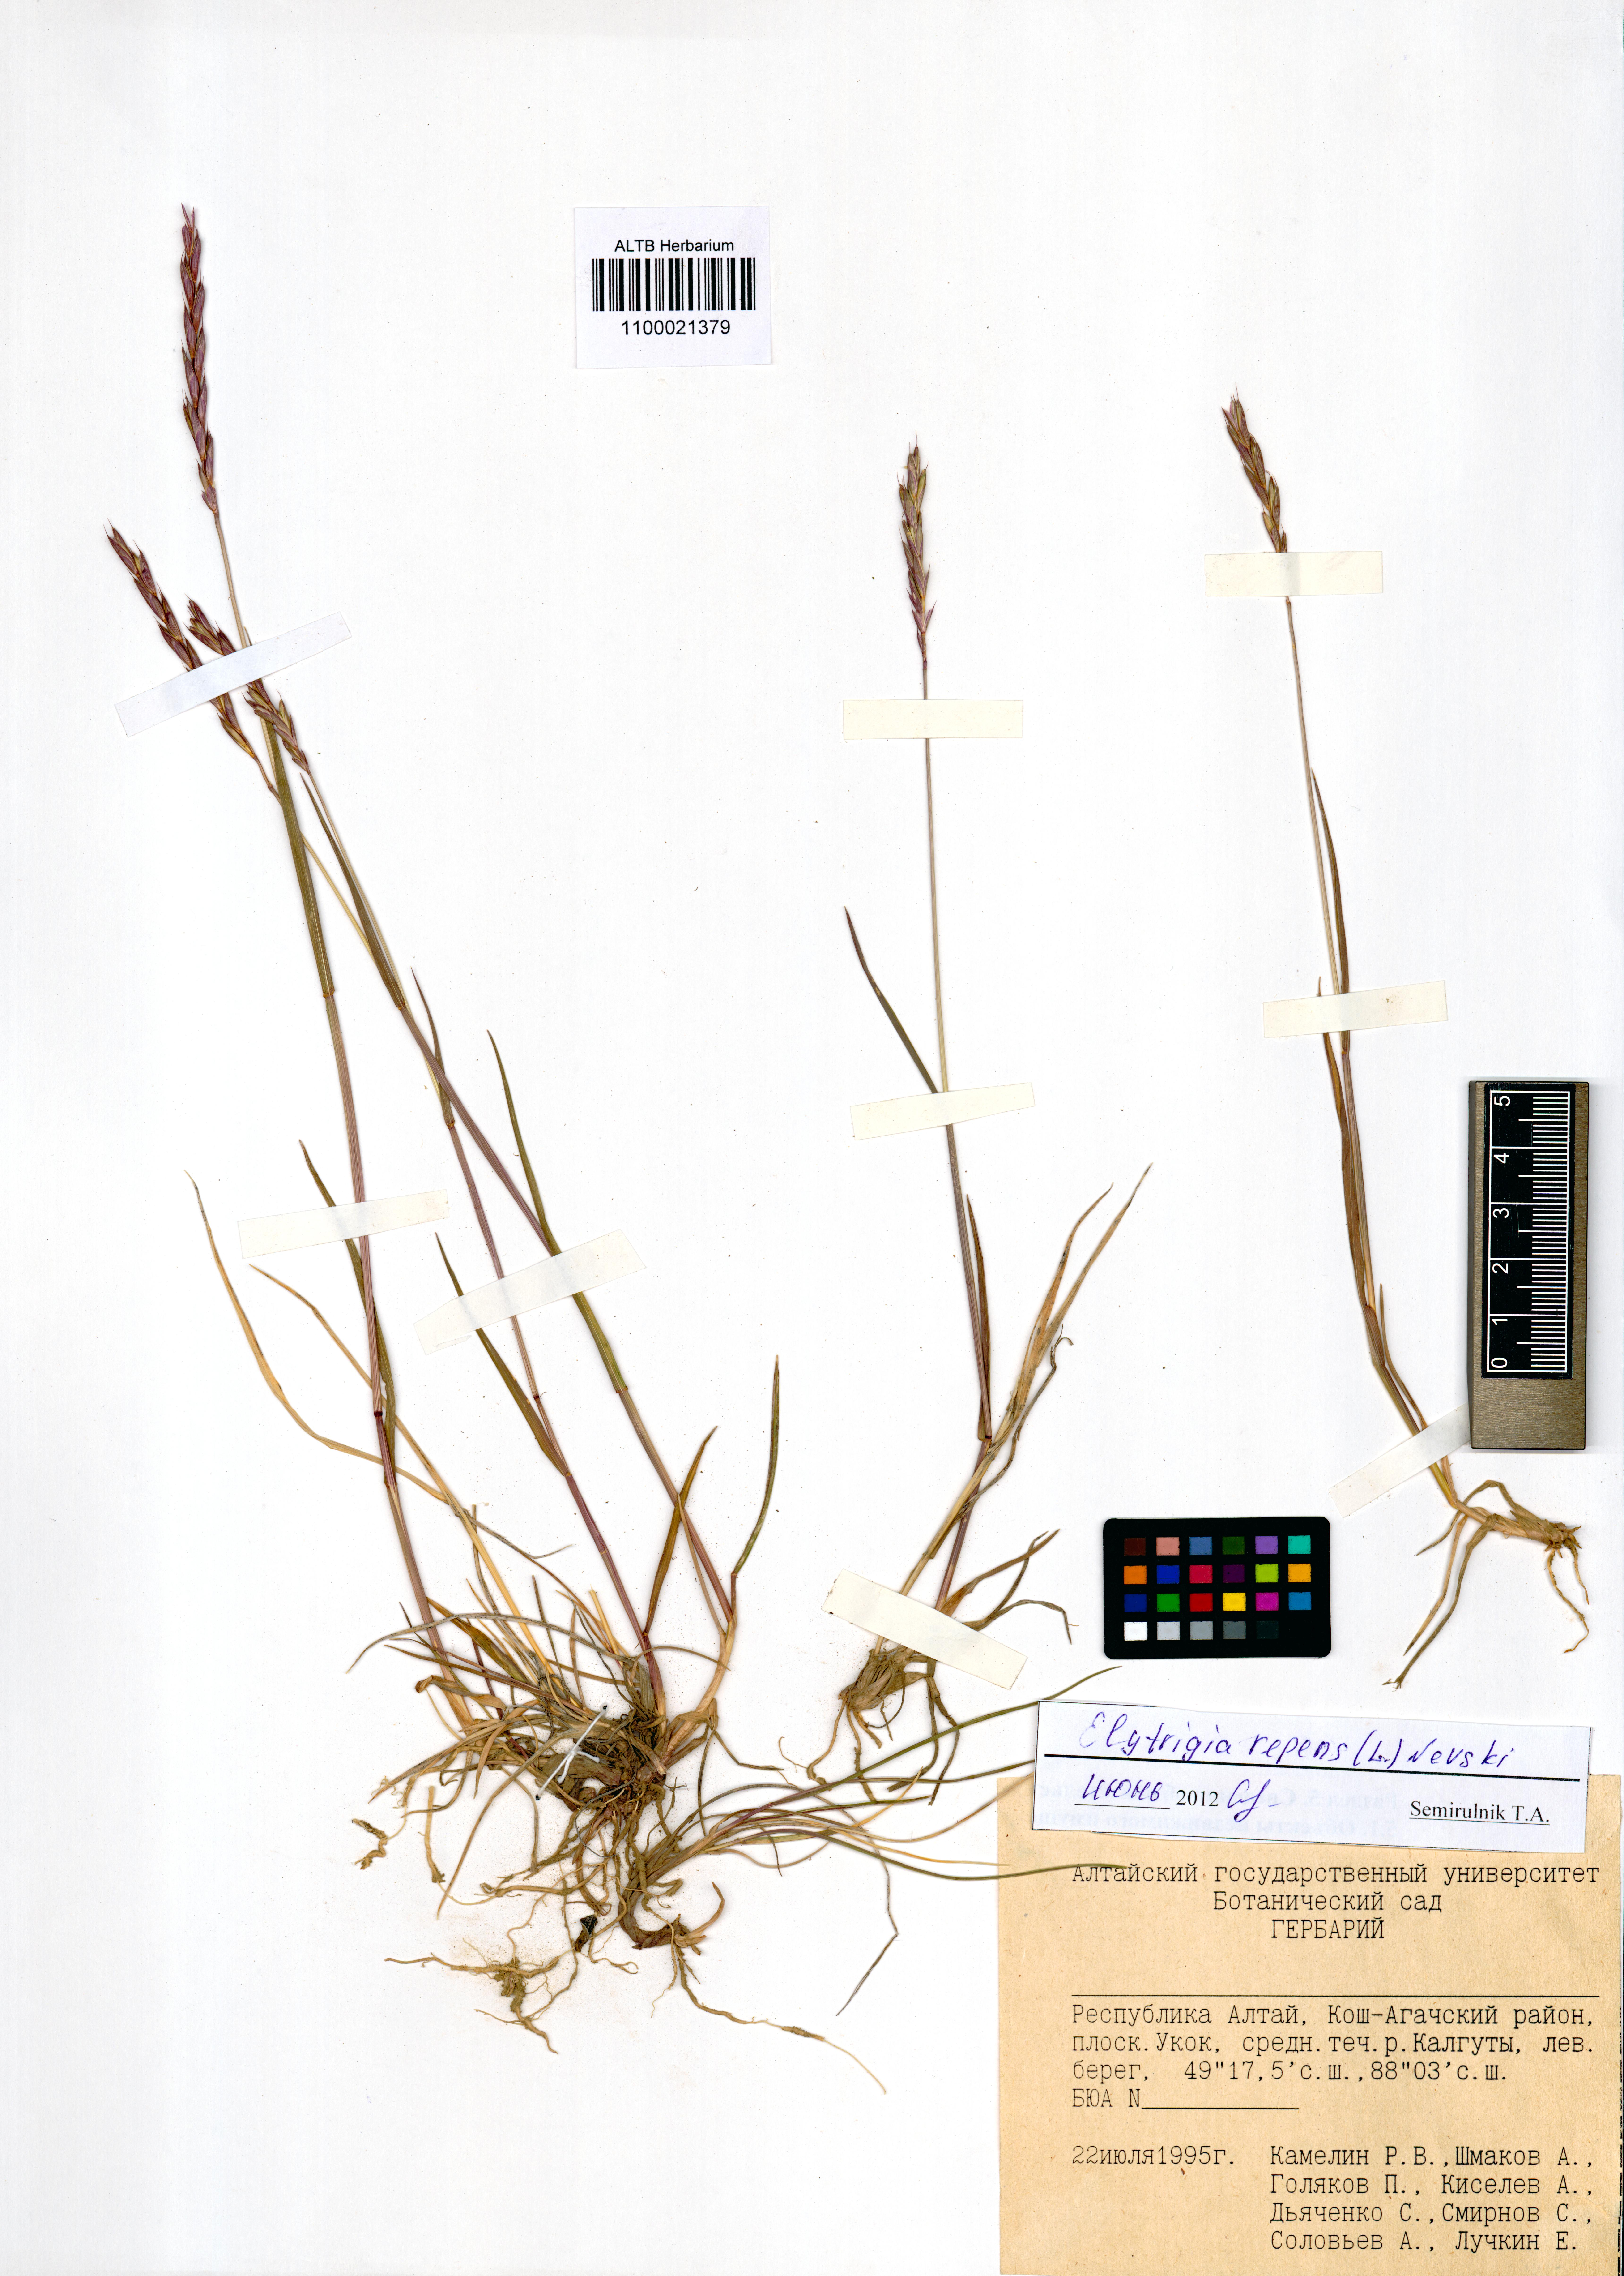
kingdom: Plantae
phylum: Tracheophyta
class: Liliopsida
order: Poales
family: Poaceae
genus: Elymus
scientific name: Elymus repens
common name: Quackgrass
